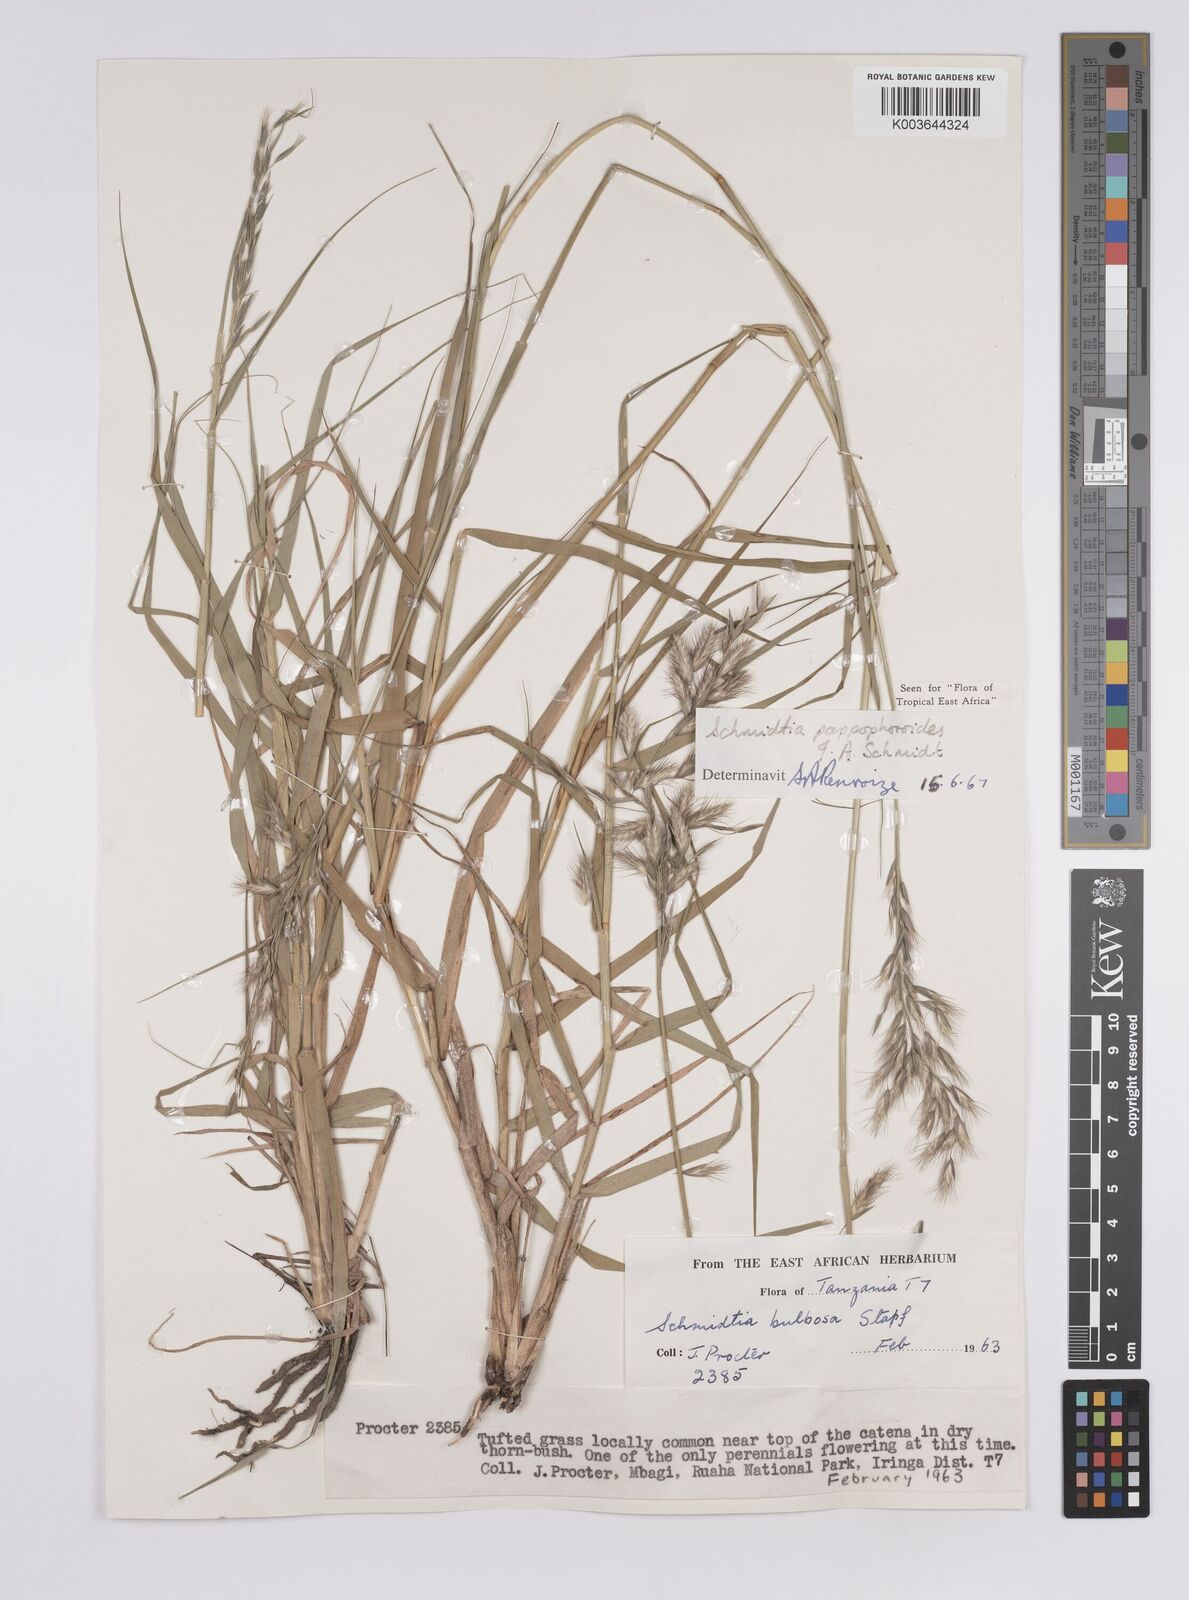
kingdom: Plantae
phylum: Tracheophyta
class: Liliopsida
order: Poales
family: Poaceae
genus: Schmidtia
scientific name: Schmidtia pappophoroides
